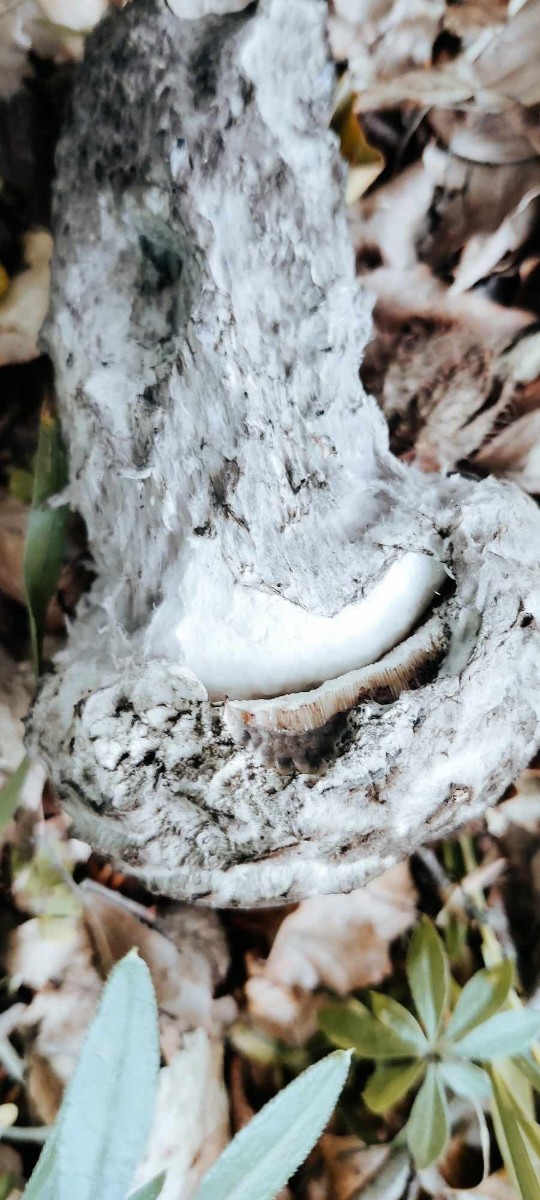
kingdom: Fungi
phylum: Basidiomycota
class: Agaricomycetes
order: Boletales
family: Boletaceae
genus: Strobilomyces
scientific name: Strobilomyces strobilaceus
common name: koglerørhat
